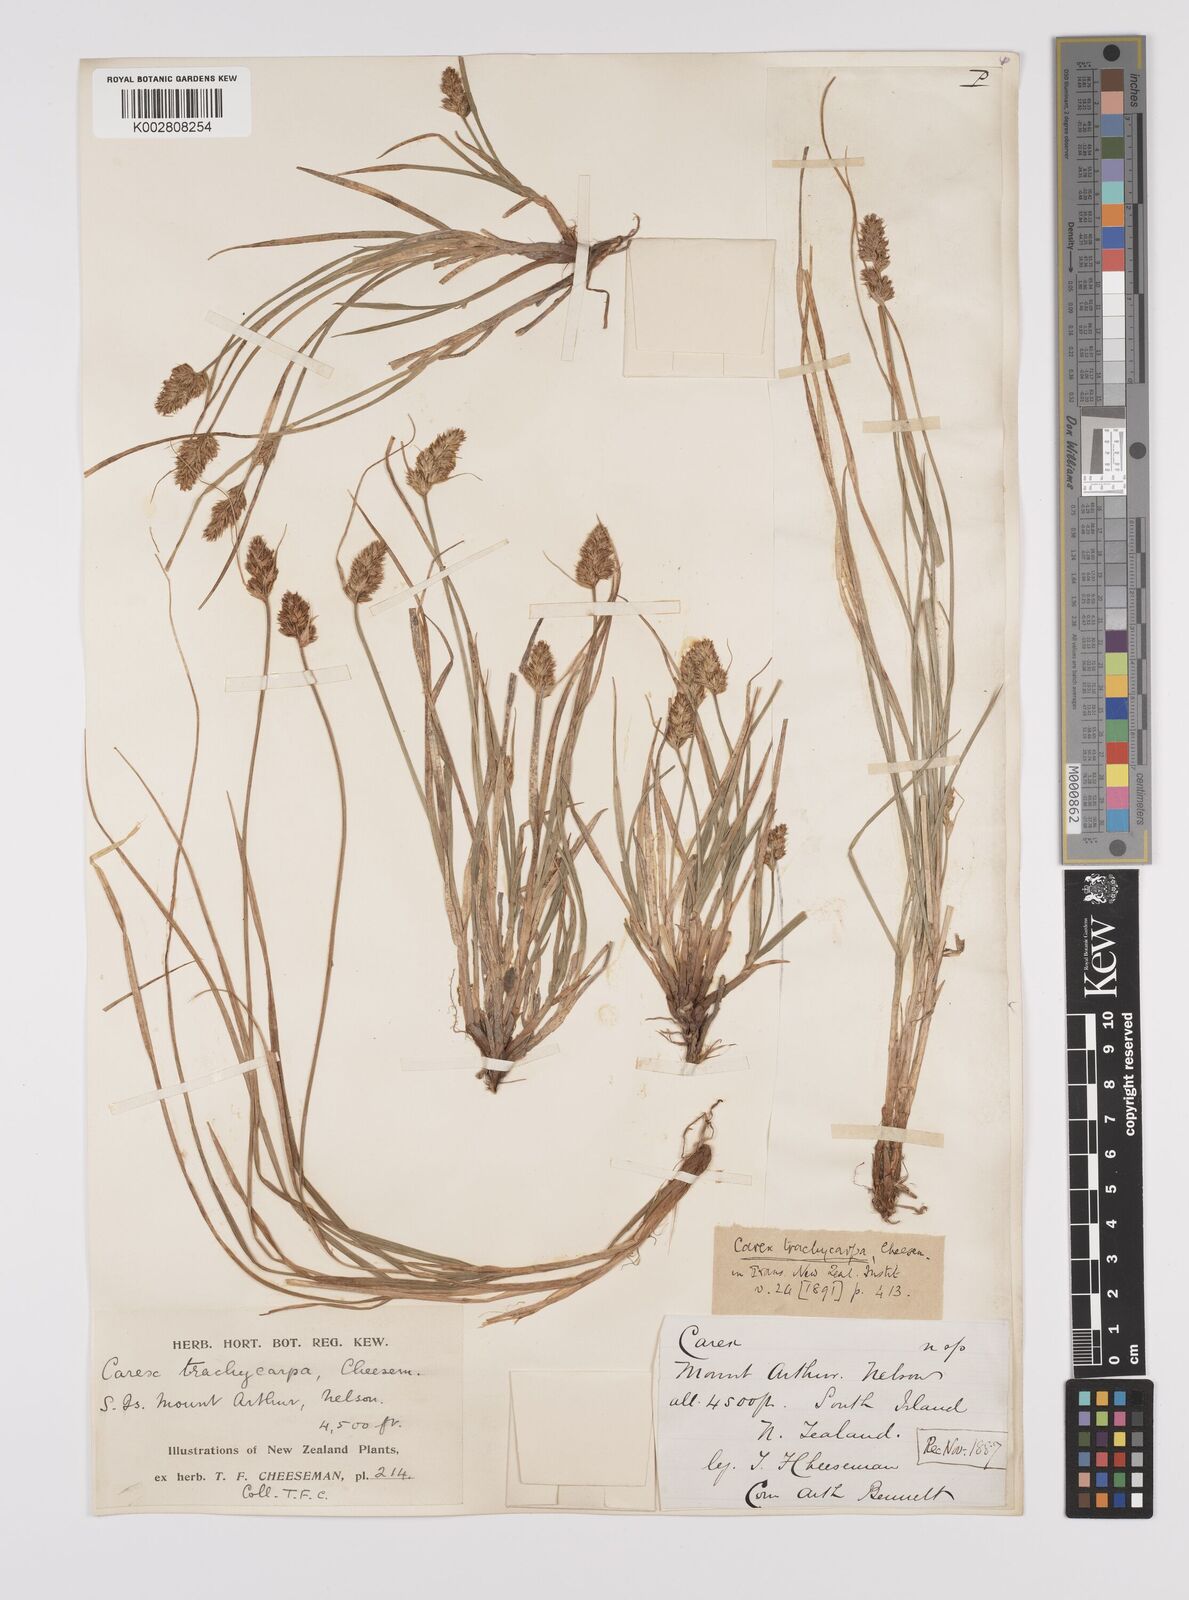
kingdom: Plantae
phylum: Tracheophyta
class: Liliopsida
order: Poales
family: Cyperaceae
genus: Carex
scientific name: Carex trachycarpa
